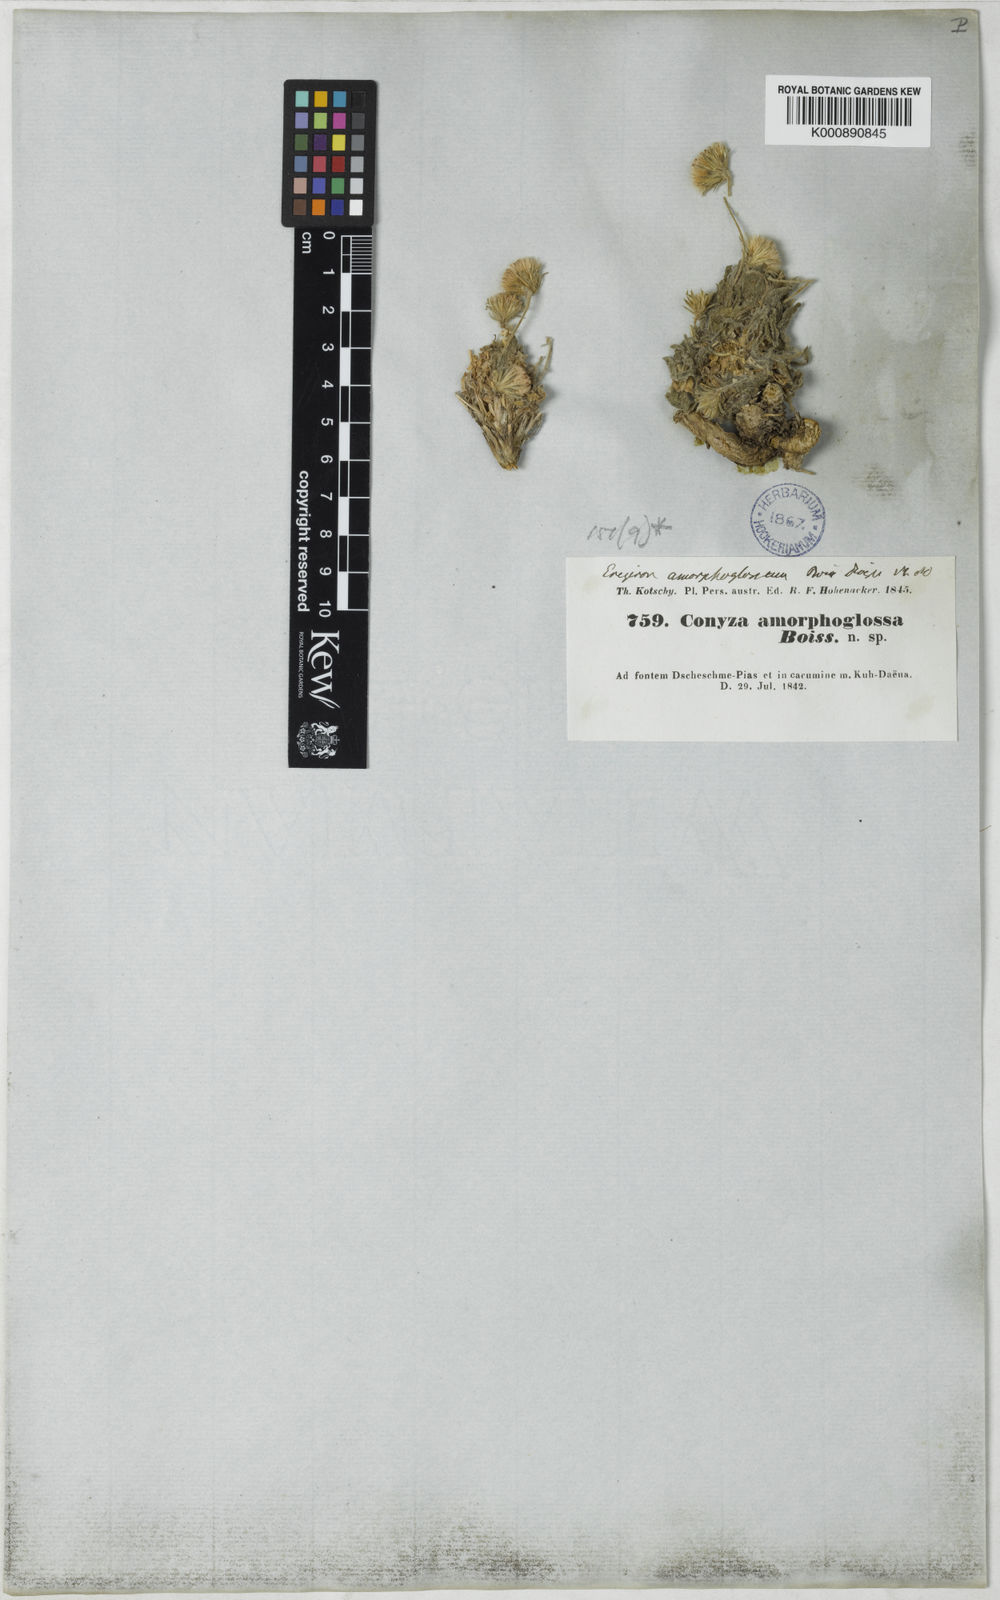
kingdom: Plantae
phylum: Tracheophyta
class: Magnoliopsida
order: Asterales
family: Asteraceae
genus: Psychrogeton
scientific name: Psychrogeton amorphoglossus
